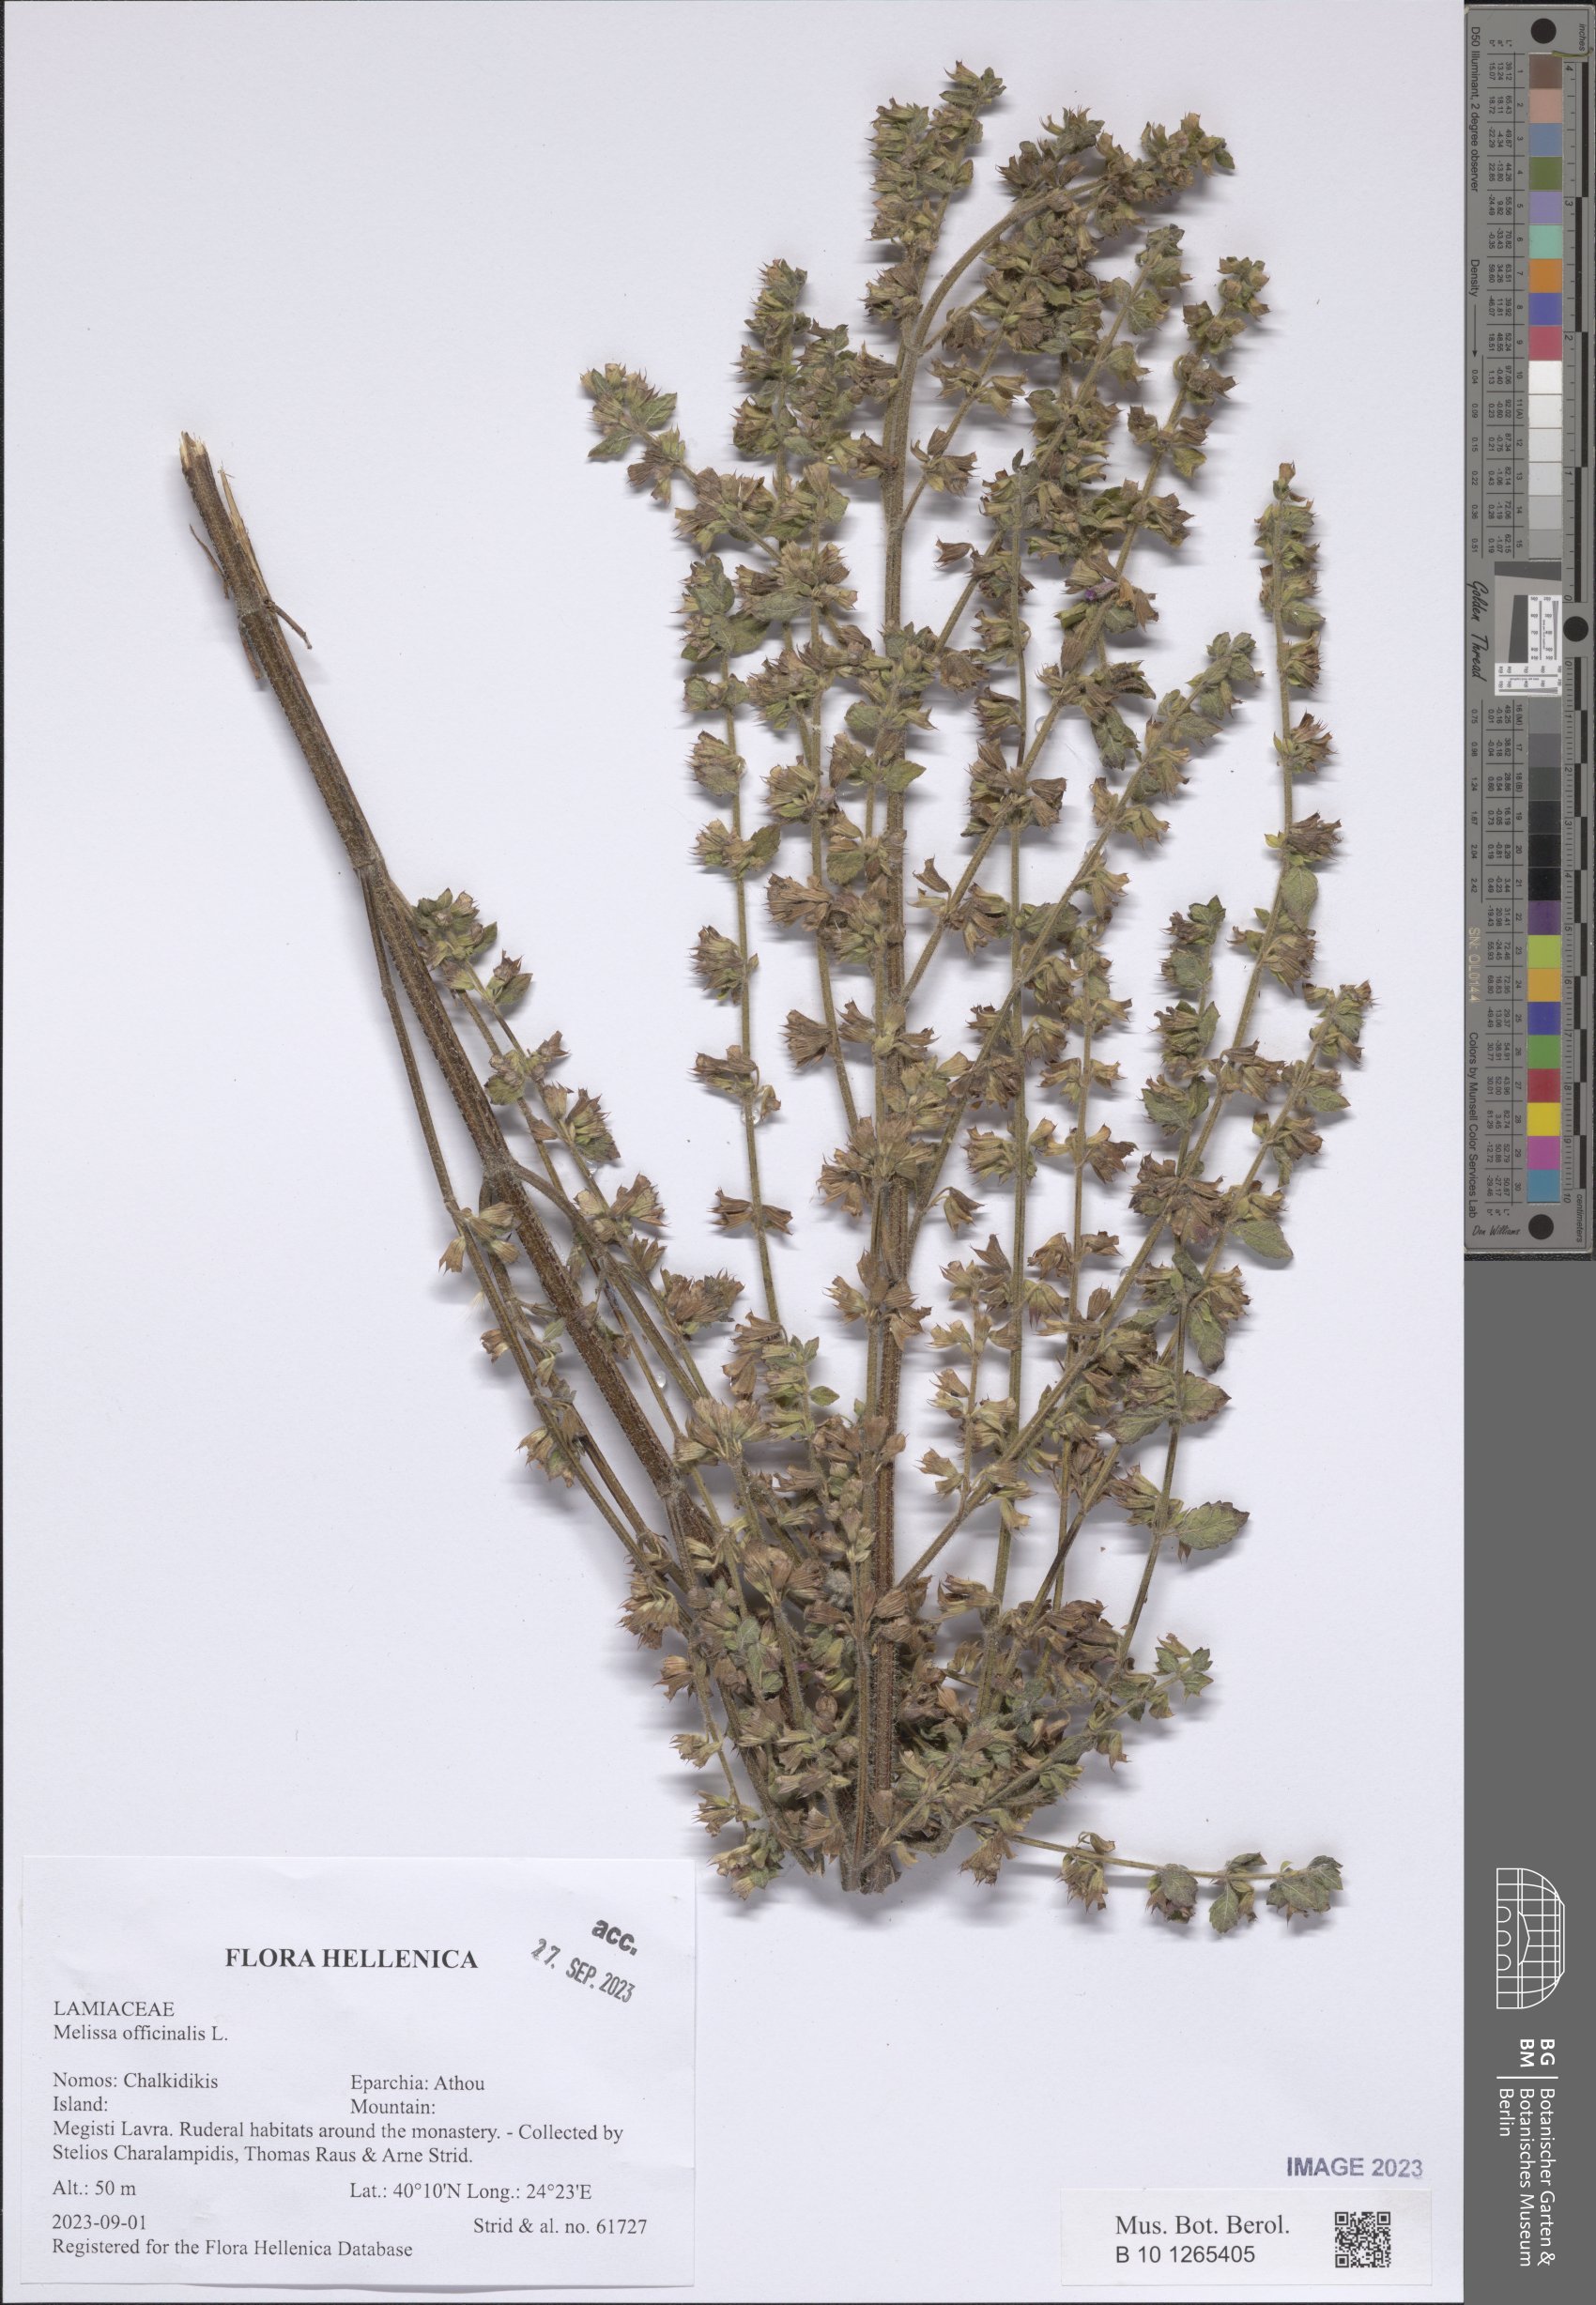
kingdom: Plantae
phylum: Tracheophyta
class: Magnoliopsida
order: Lamiales
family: Lamiaceae
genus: Melissa
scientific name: Melissa officinalis
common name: Balm
